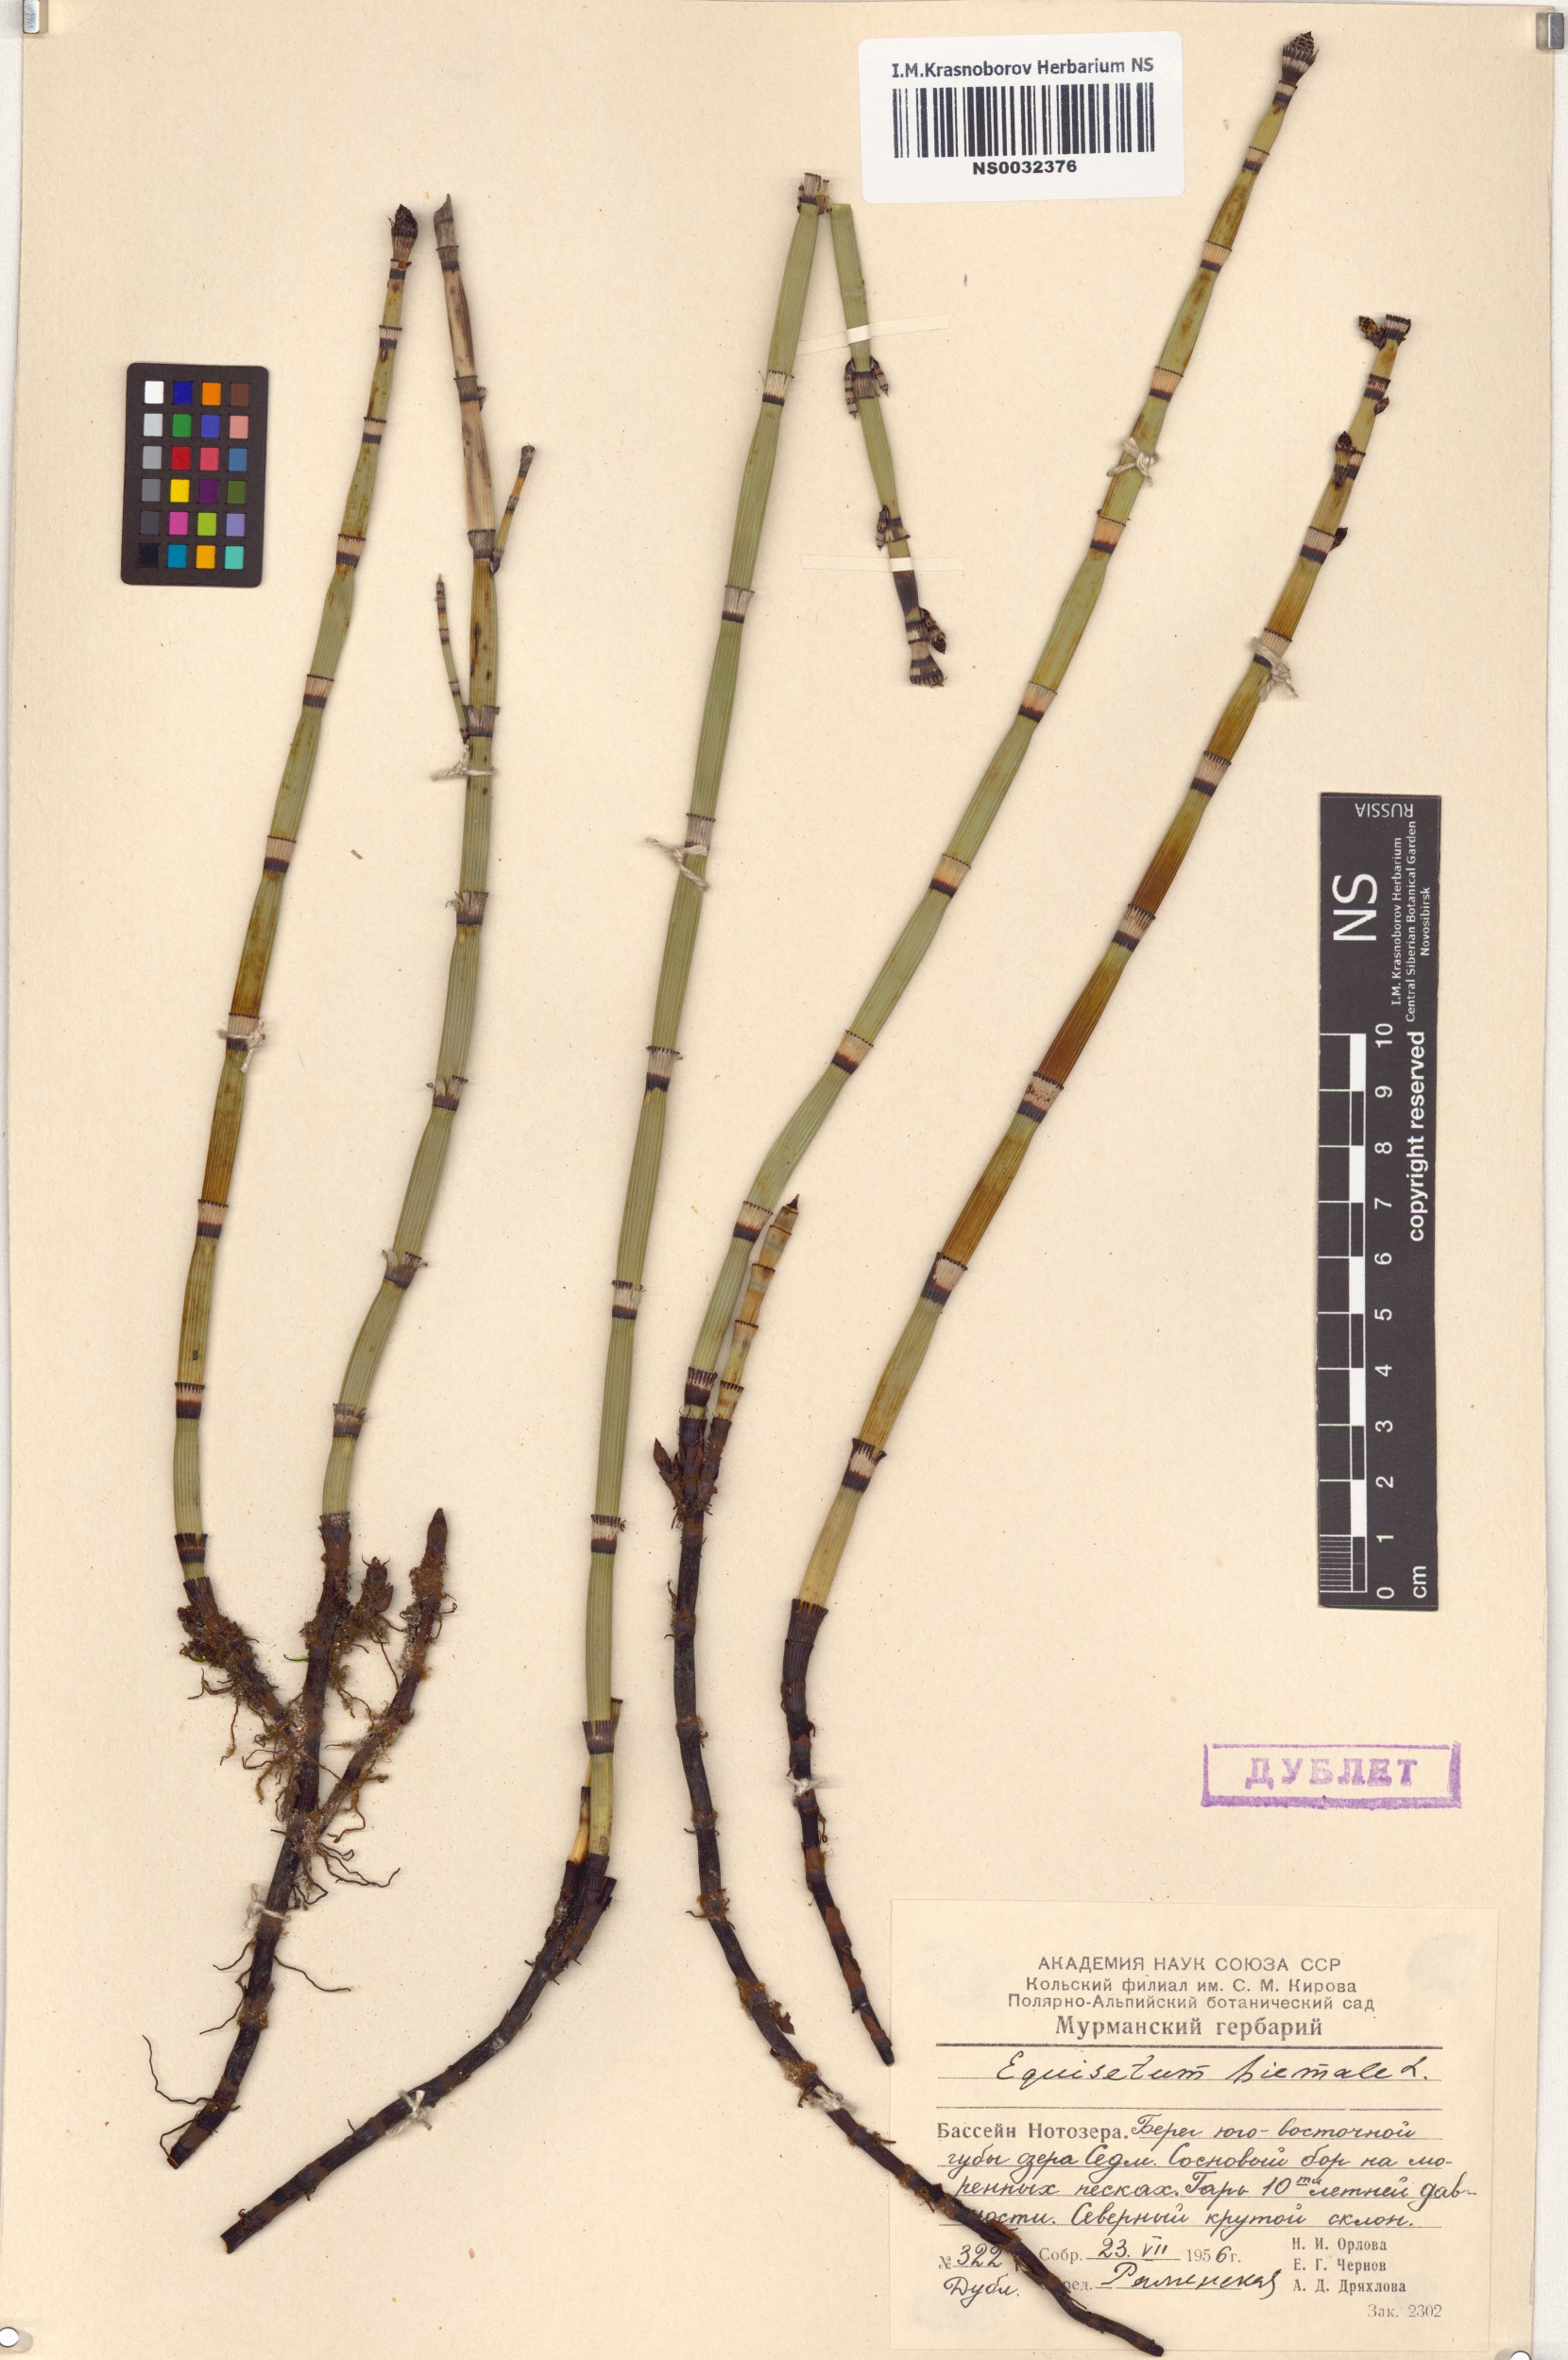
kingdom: Plantae
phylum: Tracheophyta
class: Polypodiopsida
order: Equisetales
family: Equisetaceae
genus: Equisetum
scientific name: Equisetum hyemale
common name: Rough horsetail
